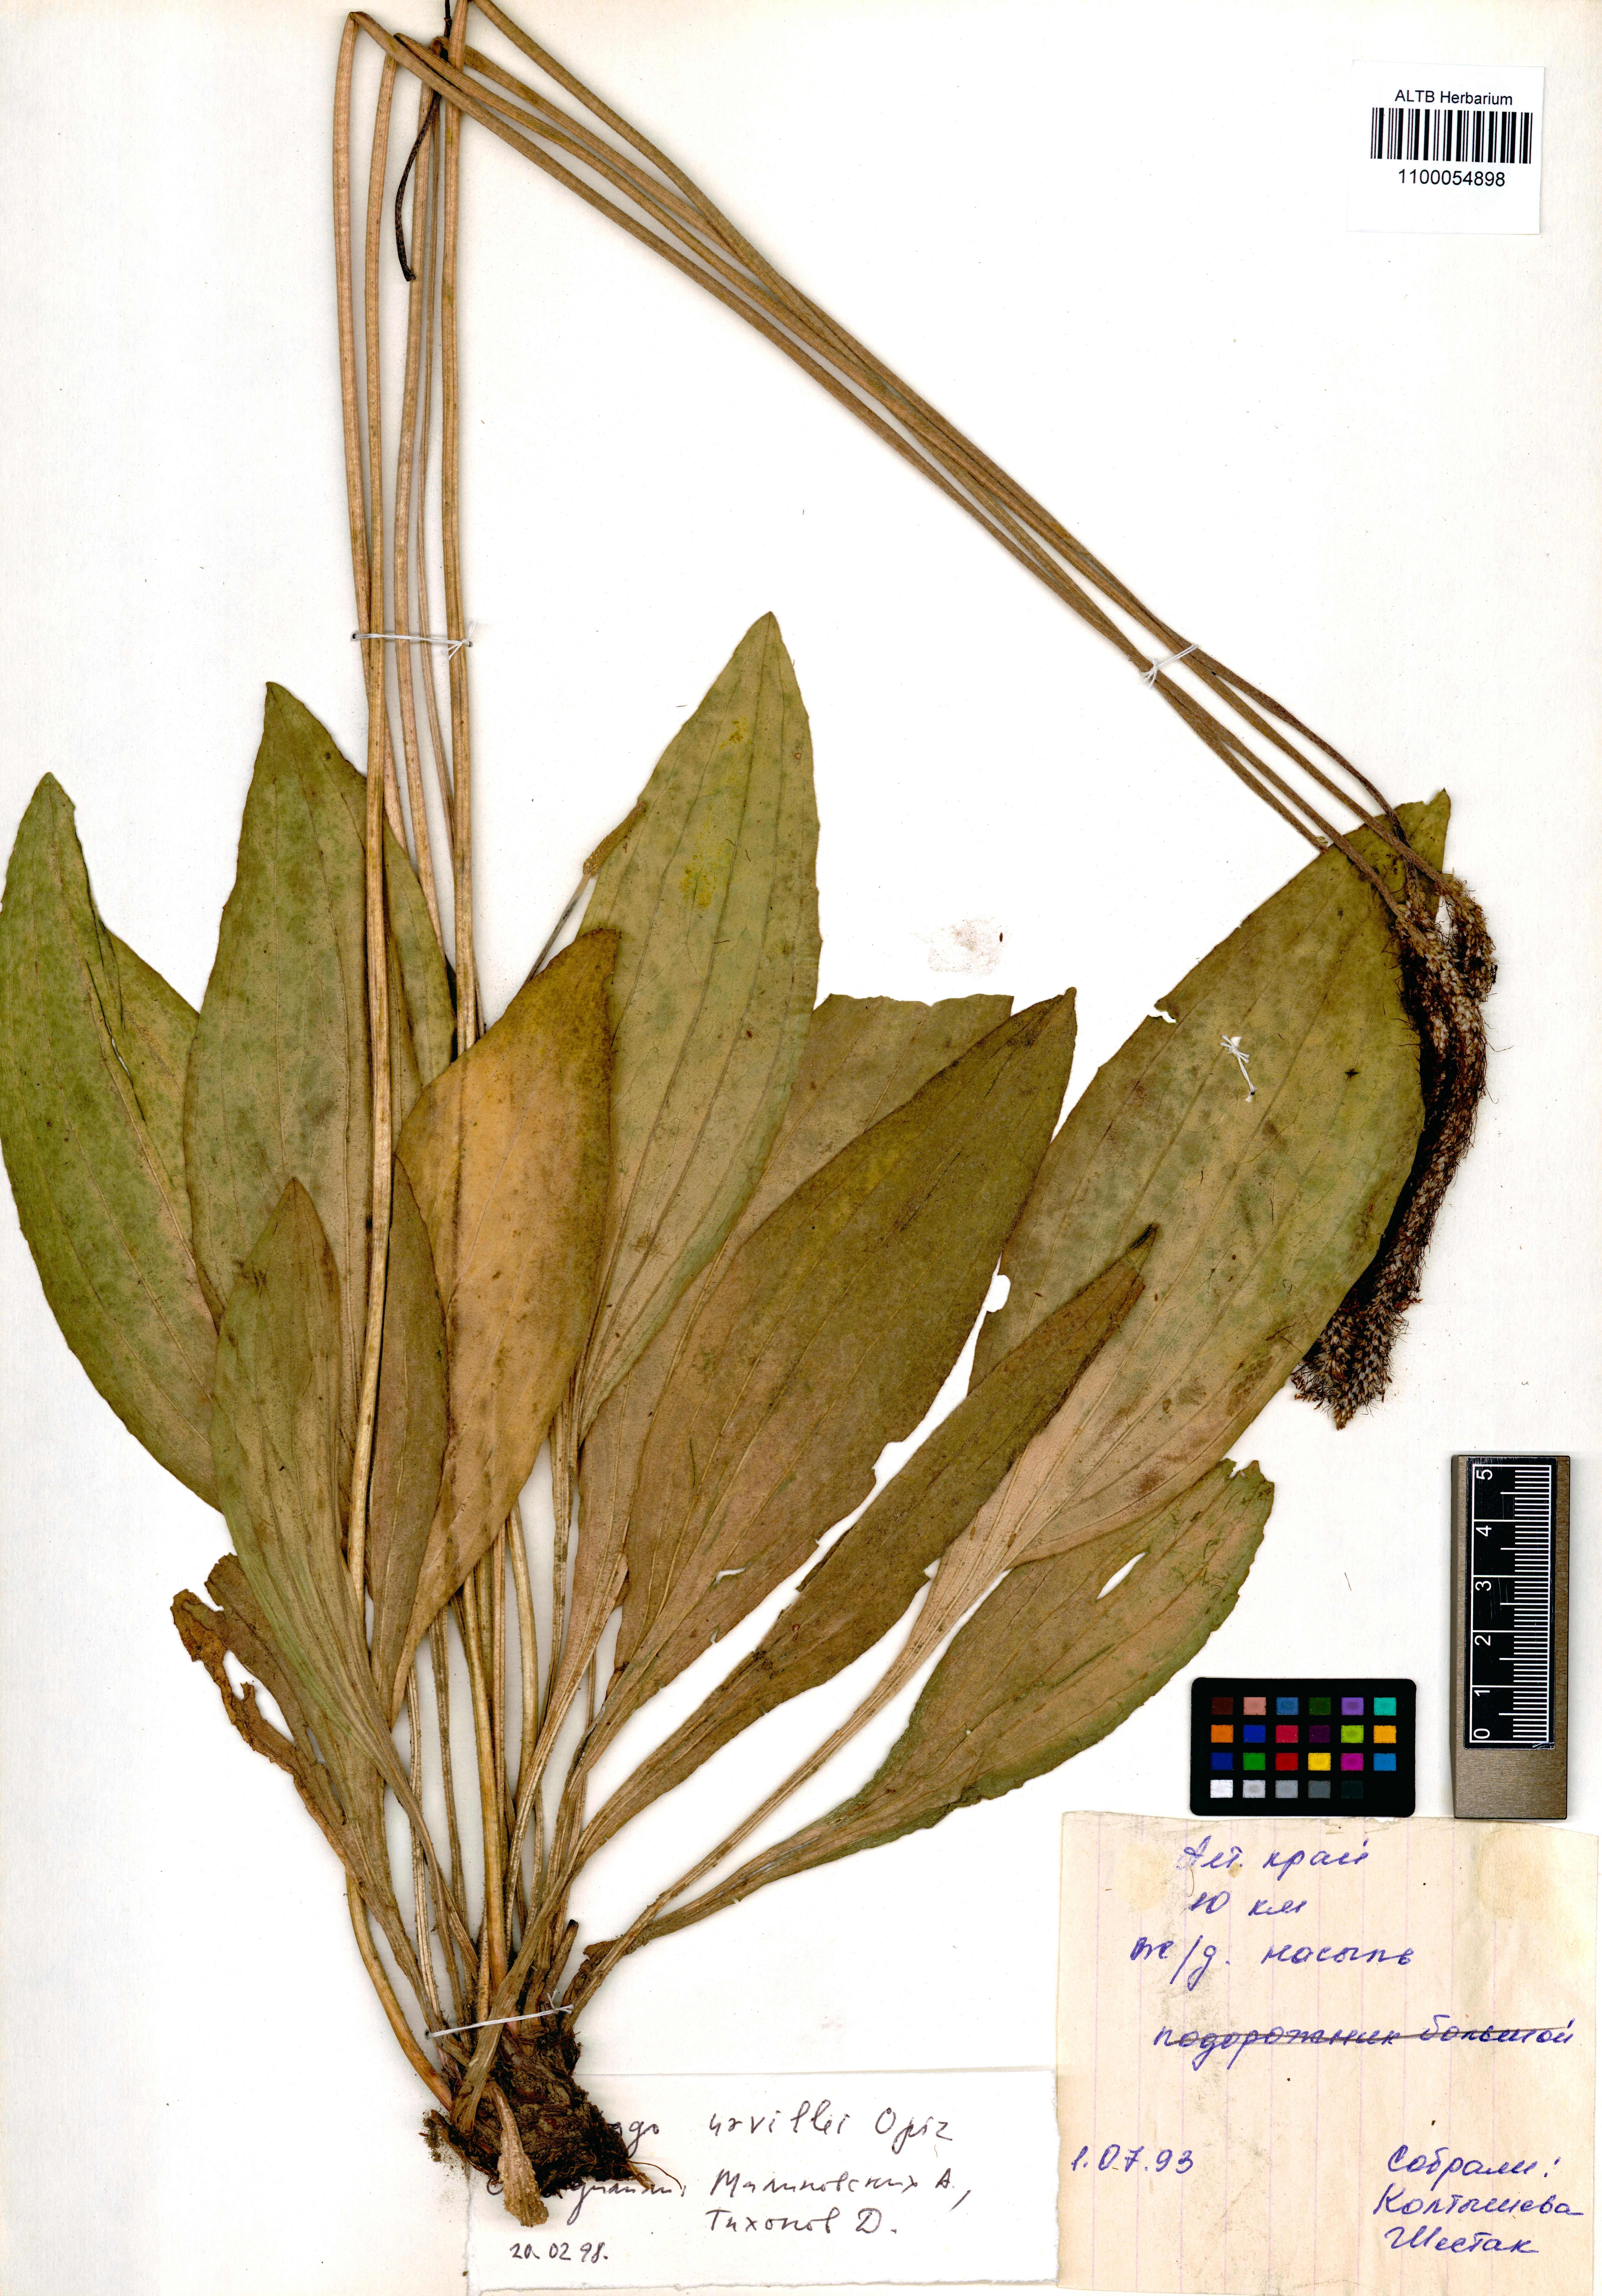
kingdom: Plantae
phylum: Tracheophyta
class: Magnoliopsida
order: Lamiales
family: Plantaginaceae
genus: Plantago
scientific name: Plantago urvillei
